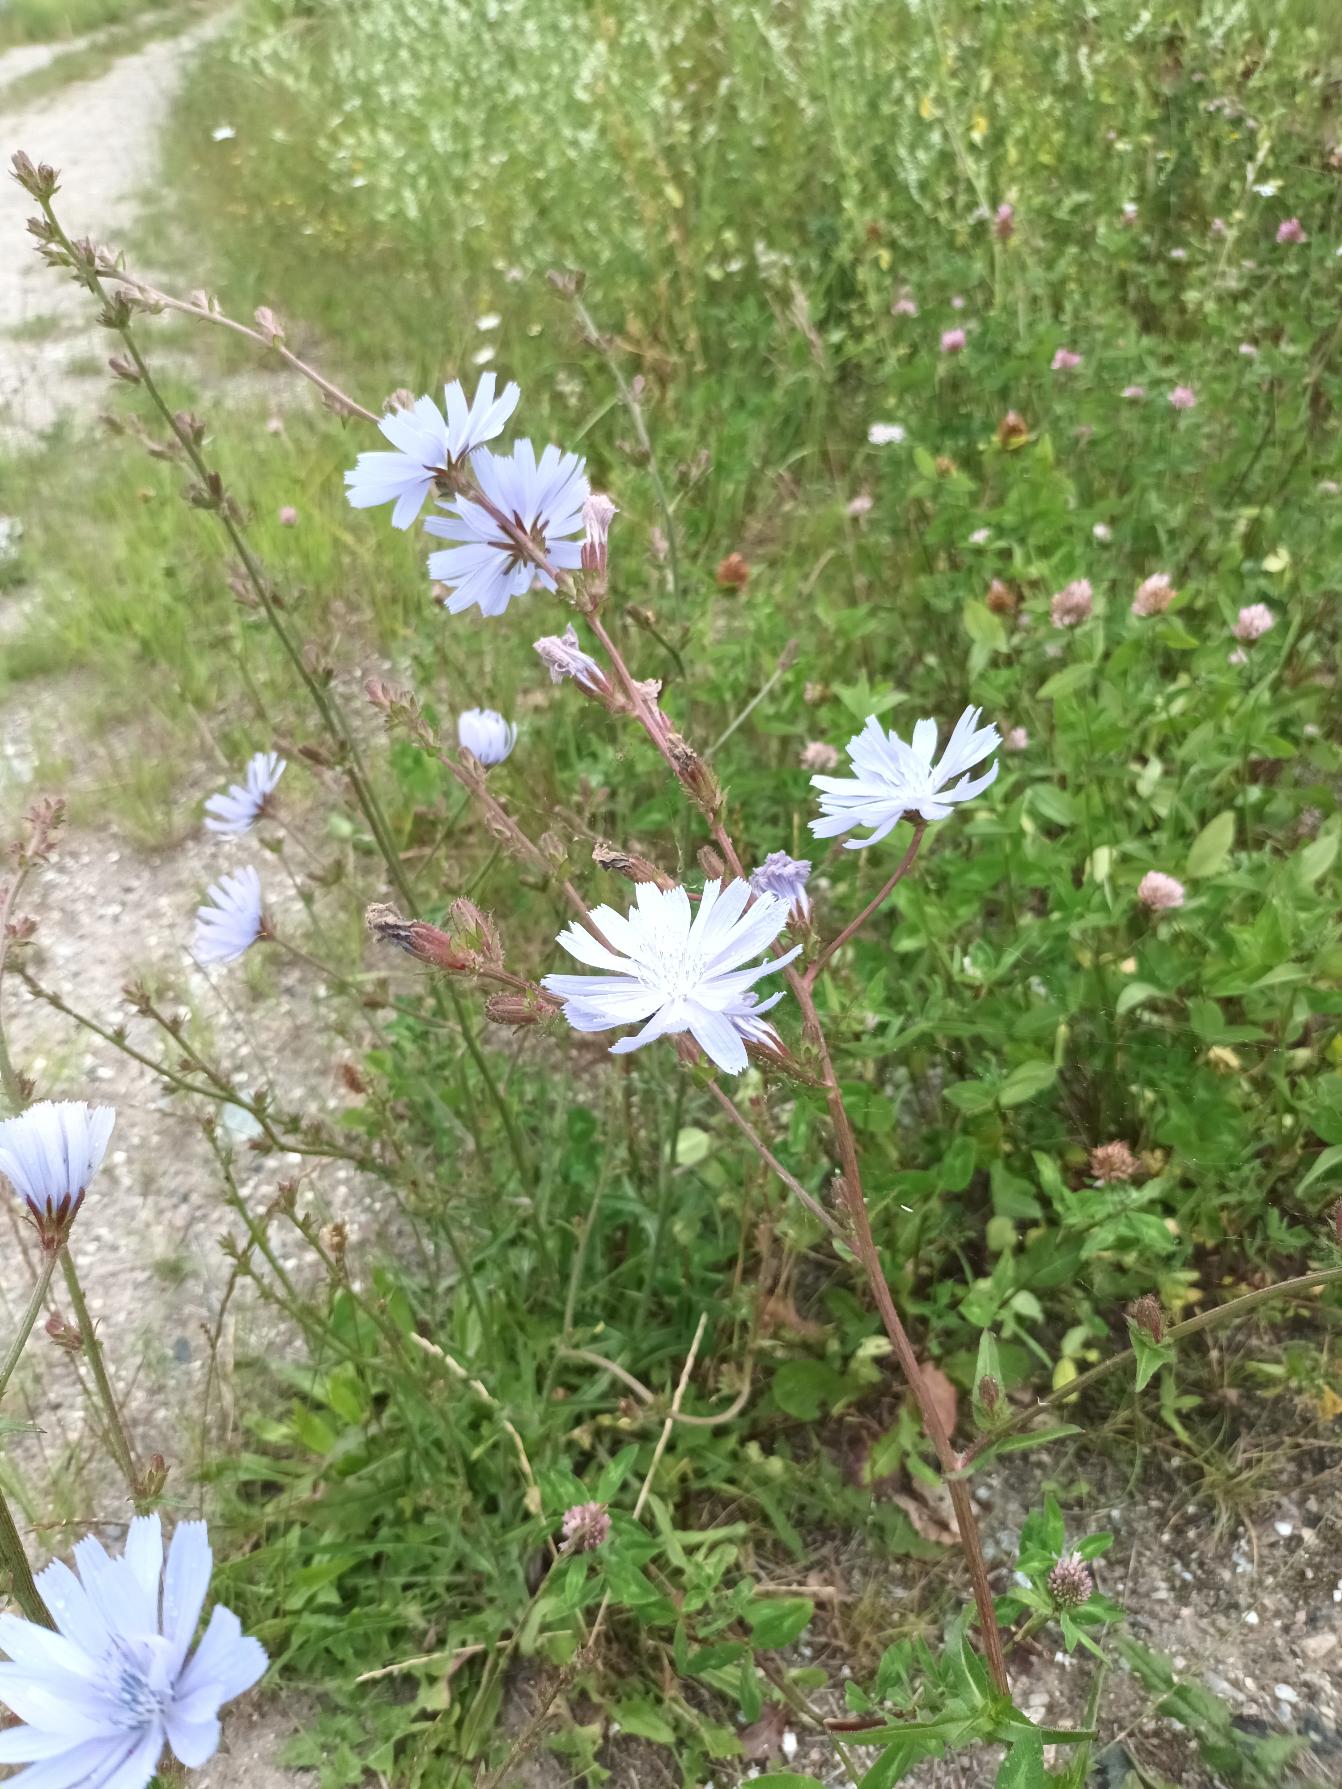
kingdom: Plantae
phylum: Tracheophyta
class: Magnoliopsida
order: Asterales
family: Asteraceae
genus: Cichorium
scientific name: Cichorium intybus
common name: Cikorie
